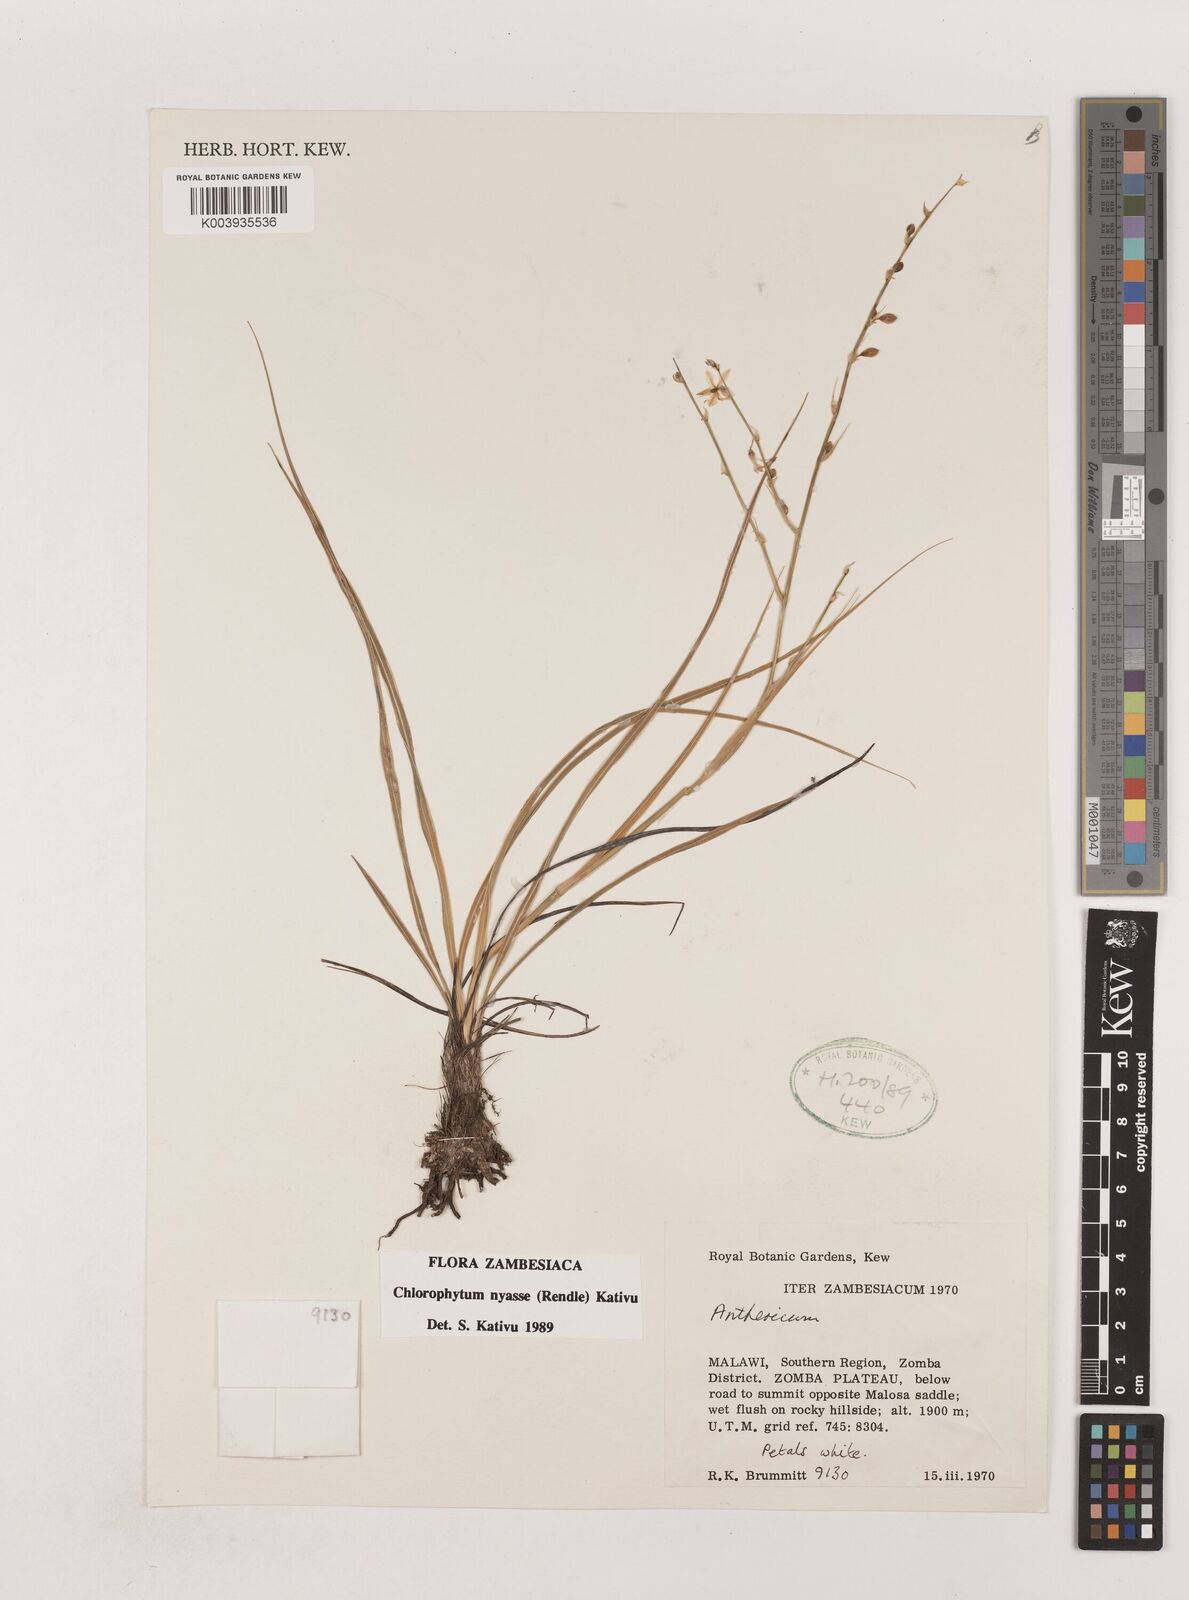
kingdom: Plantae
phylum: Tracheophyta
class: Liliopsida
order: Asparagales
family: Asparagaceae
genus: Chlorophytum
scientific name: Chlorophytum nyasae
